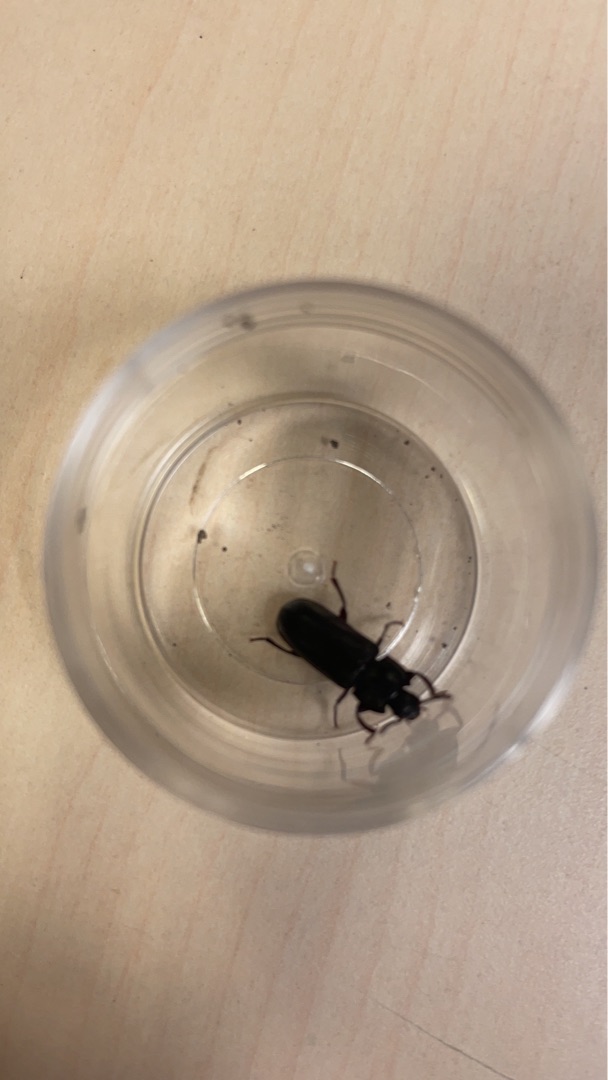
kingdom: Animalia
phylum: Arthropoda
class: Insecta
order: Coleoptera
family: Tenebrionidae
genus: Tenebrio
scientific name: Tenebrio molitor
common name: Melskrubbe
